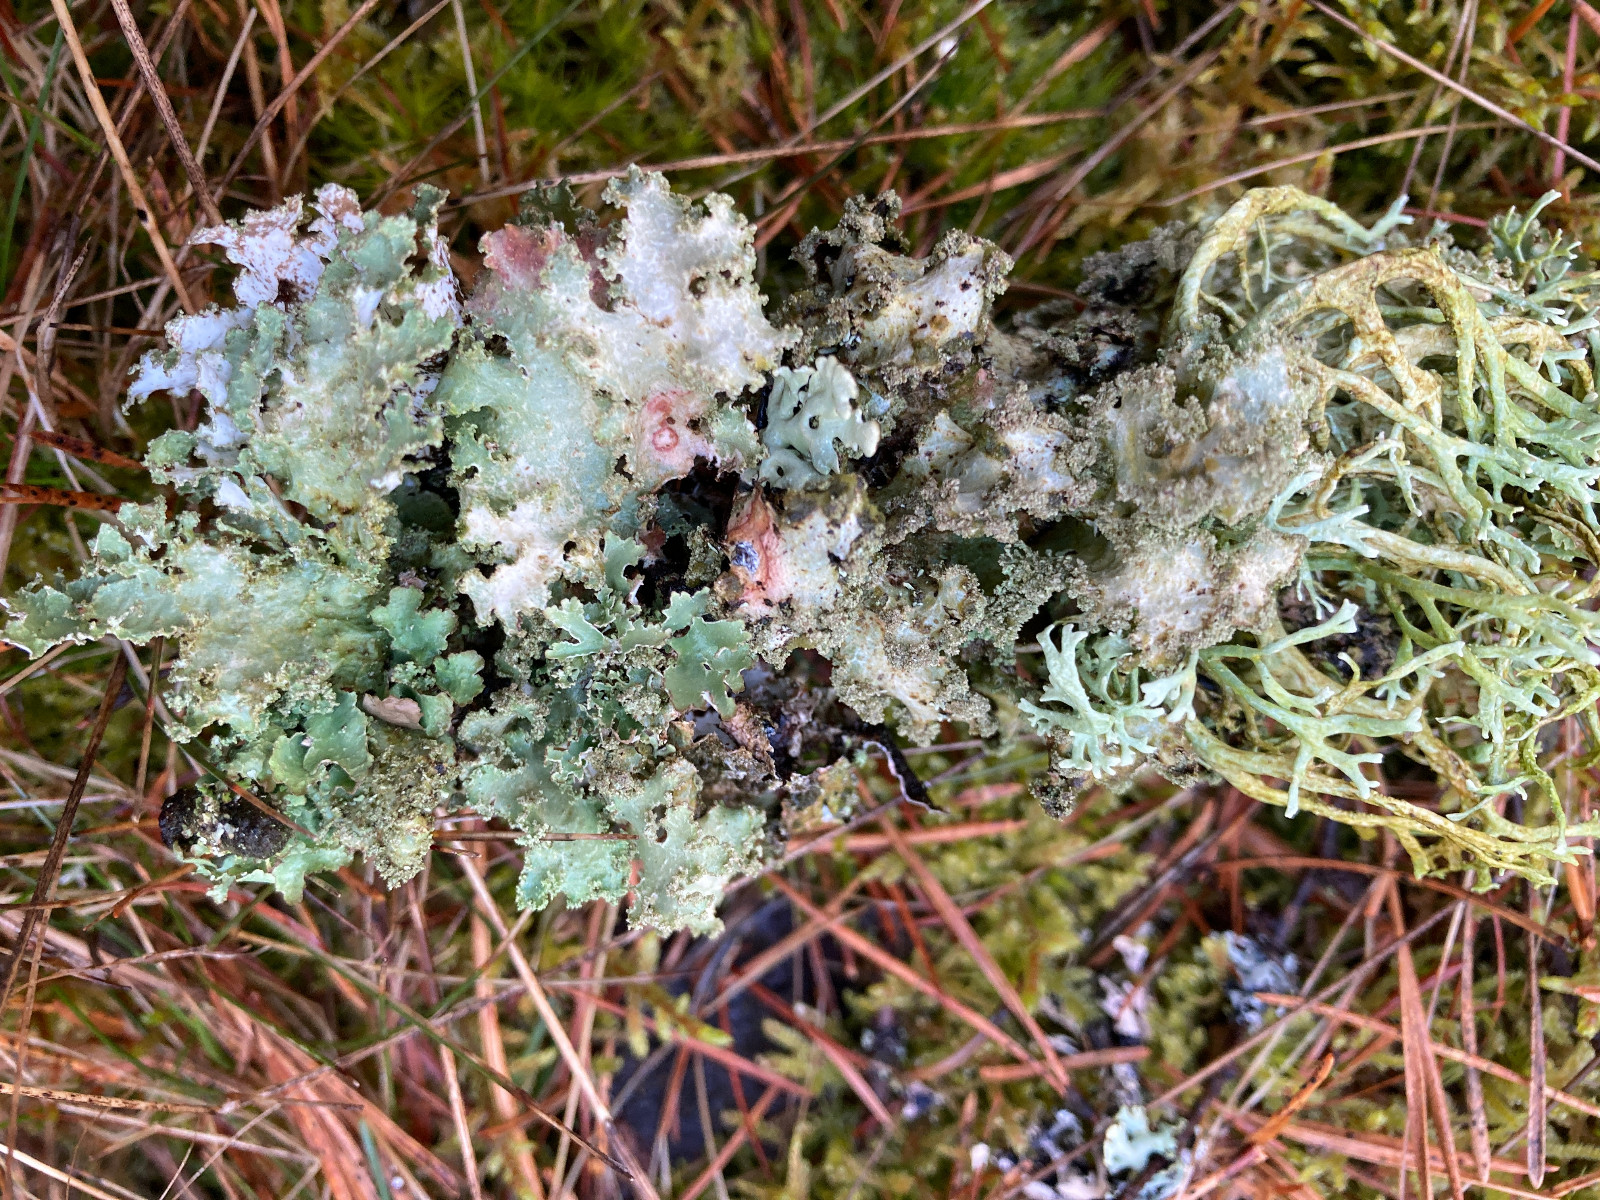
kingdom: Fungi
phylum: Ascomycota
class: Lecanoromycetes
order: Lecanorales
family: Parmeliaceae
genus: Evernia
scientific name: Evernia prunastri
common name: almindelig slåenlav
